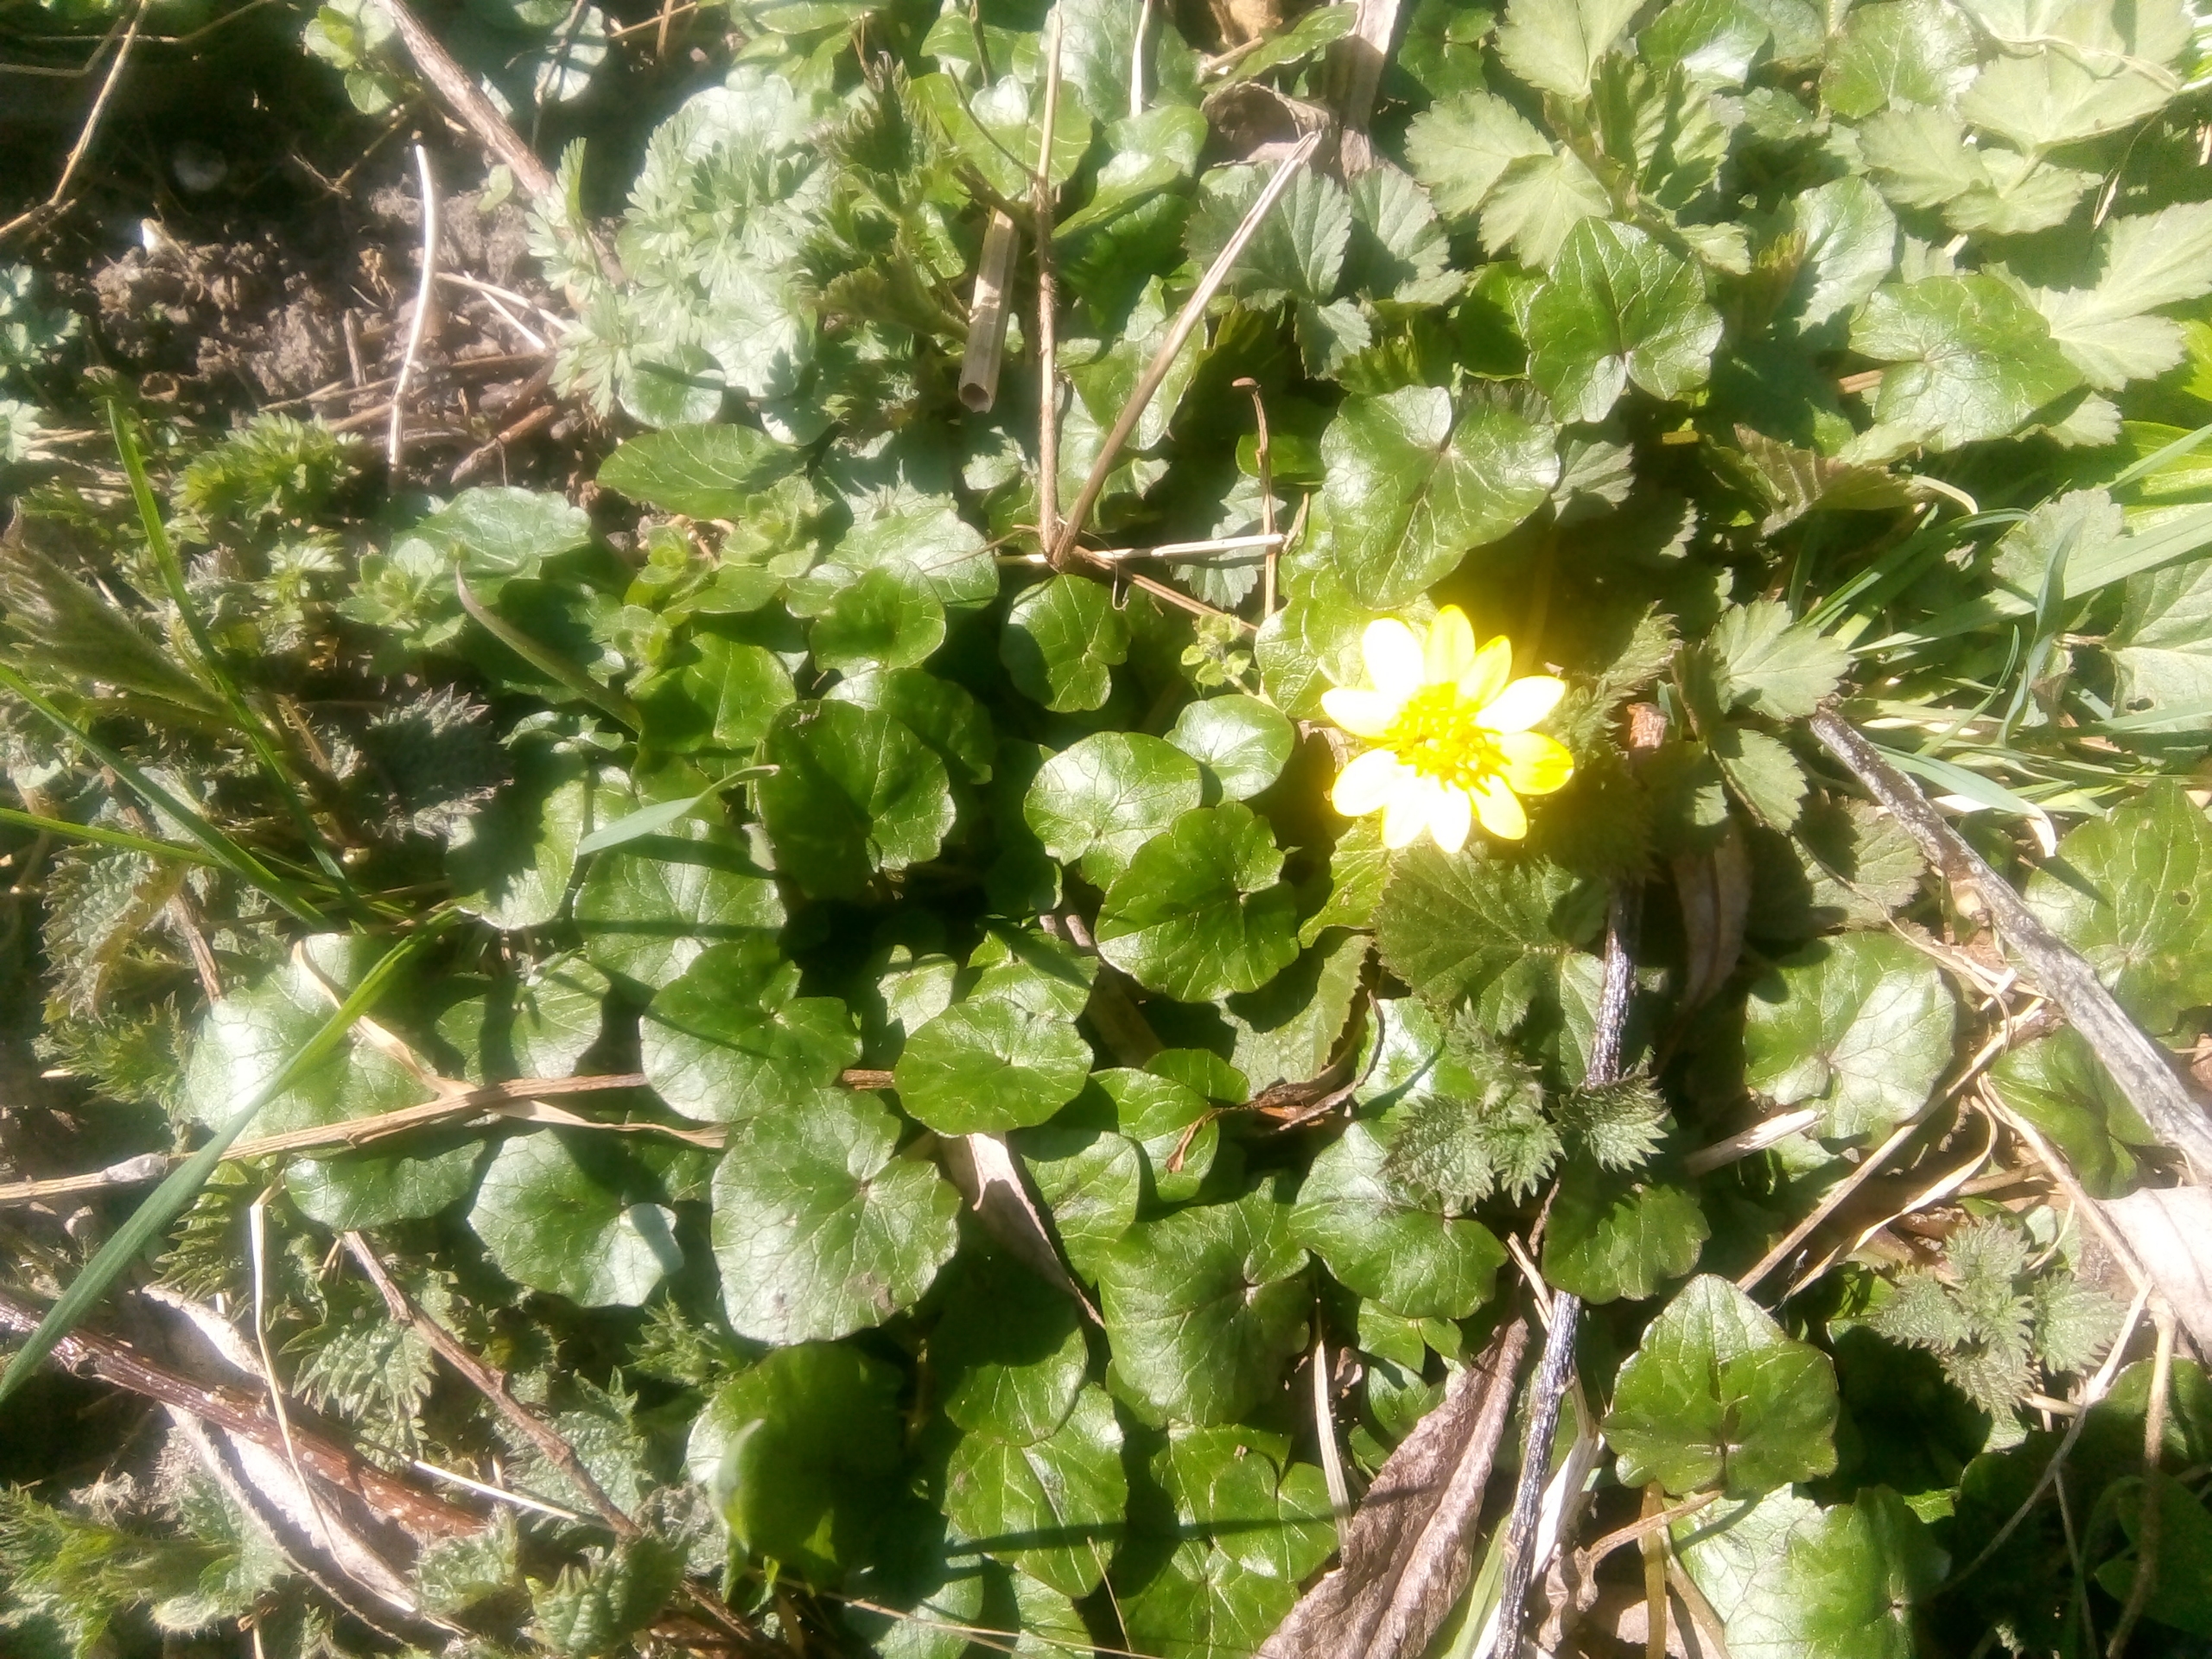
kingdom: Plantae
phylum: Tracheophyta
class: Magnoliopsida
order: Ranunculales
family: Ranunculaceae
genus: Ficaria
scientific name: Ficaria verna
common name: Vorterod
